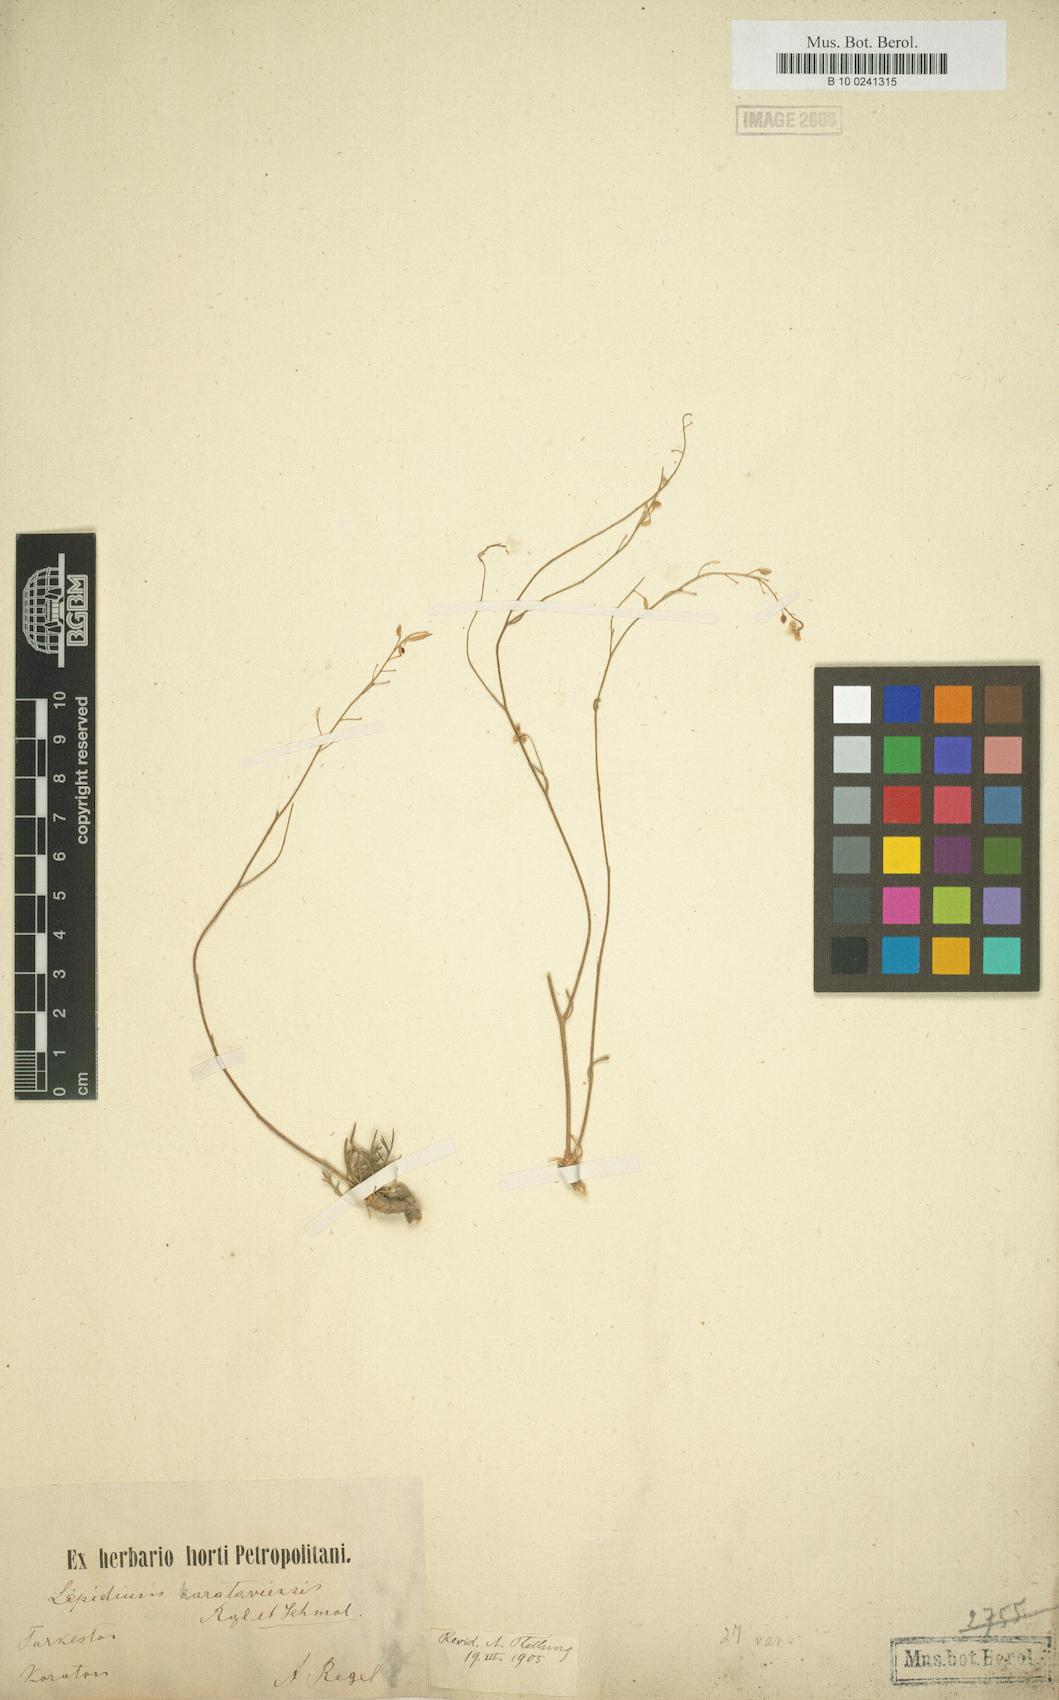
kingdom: Plantae
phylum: Tracheophyta
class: Magnoliopsida
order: Brassicales
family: Brassicaceae
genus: Lepidium
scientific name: Lepidium karataviense
